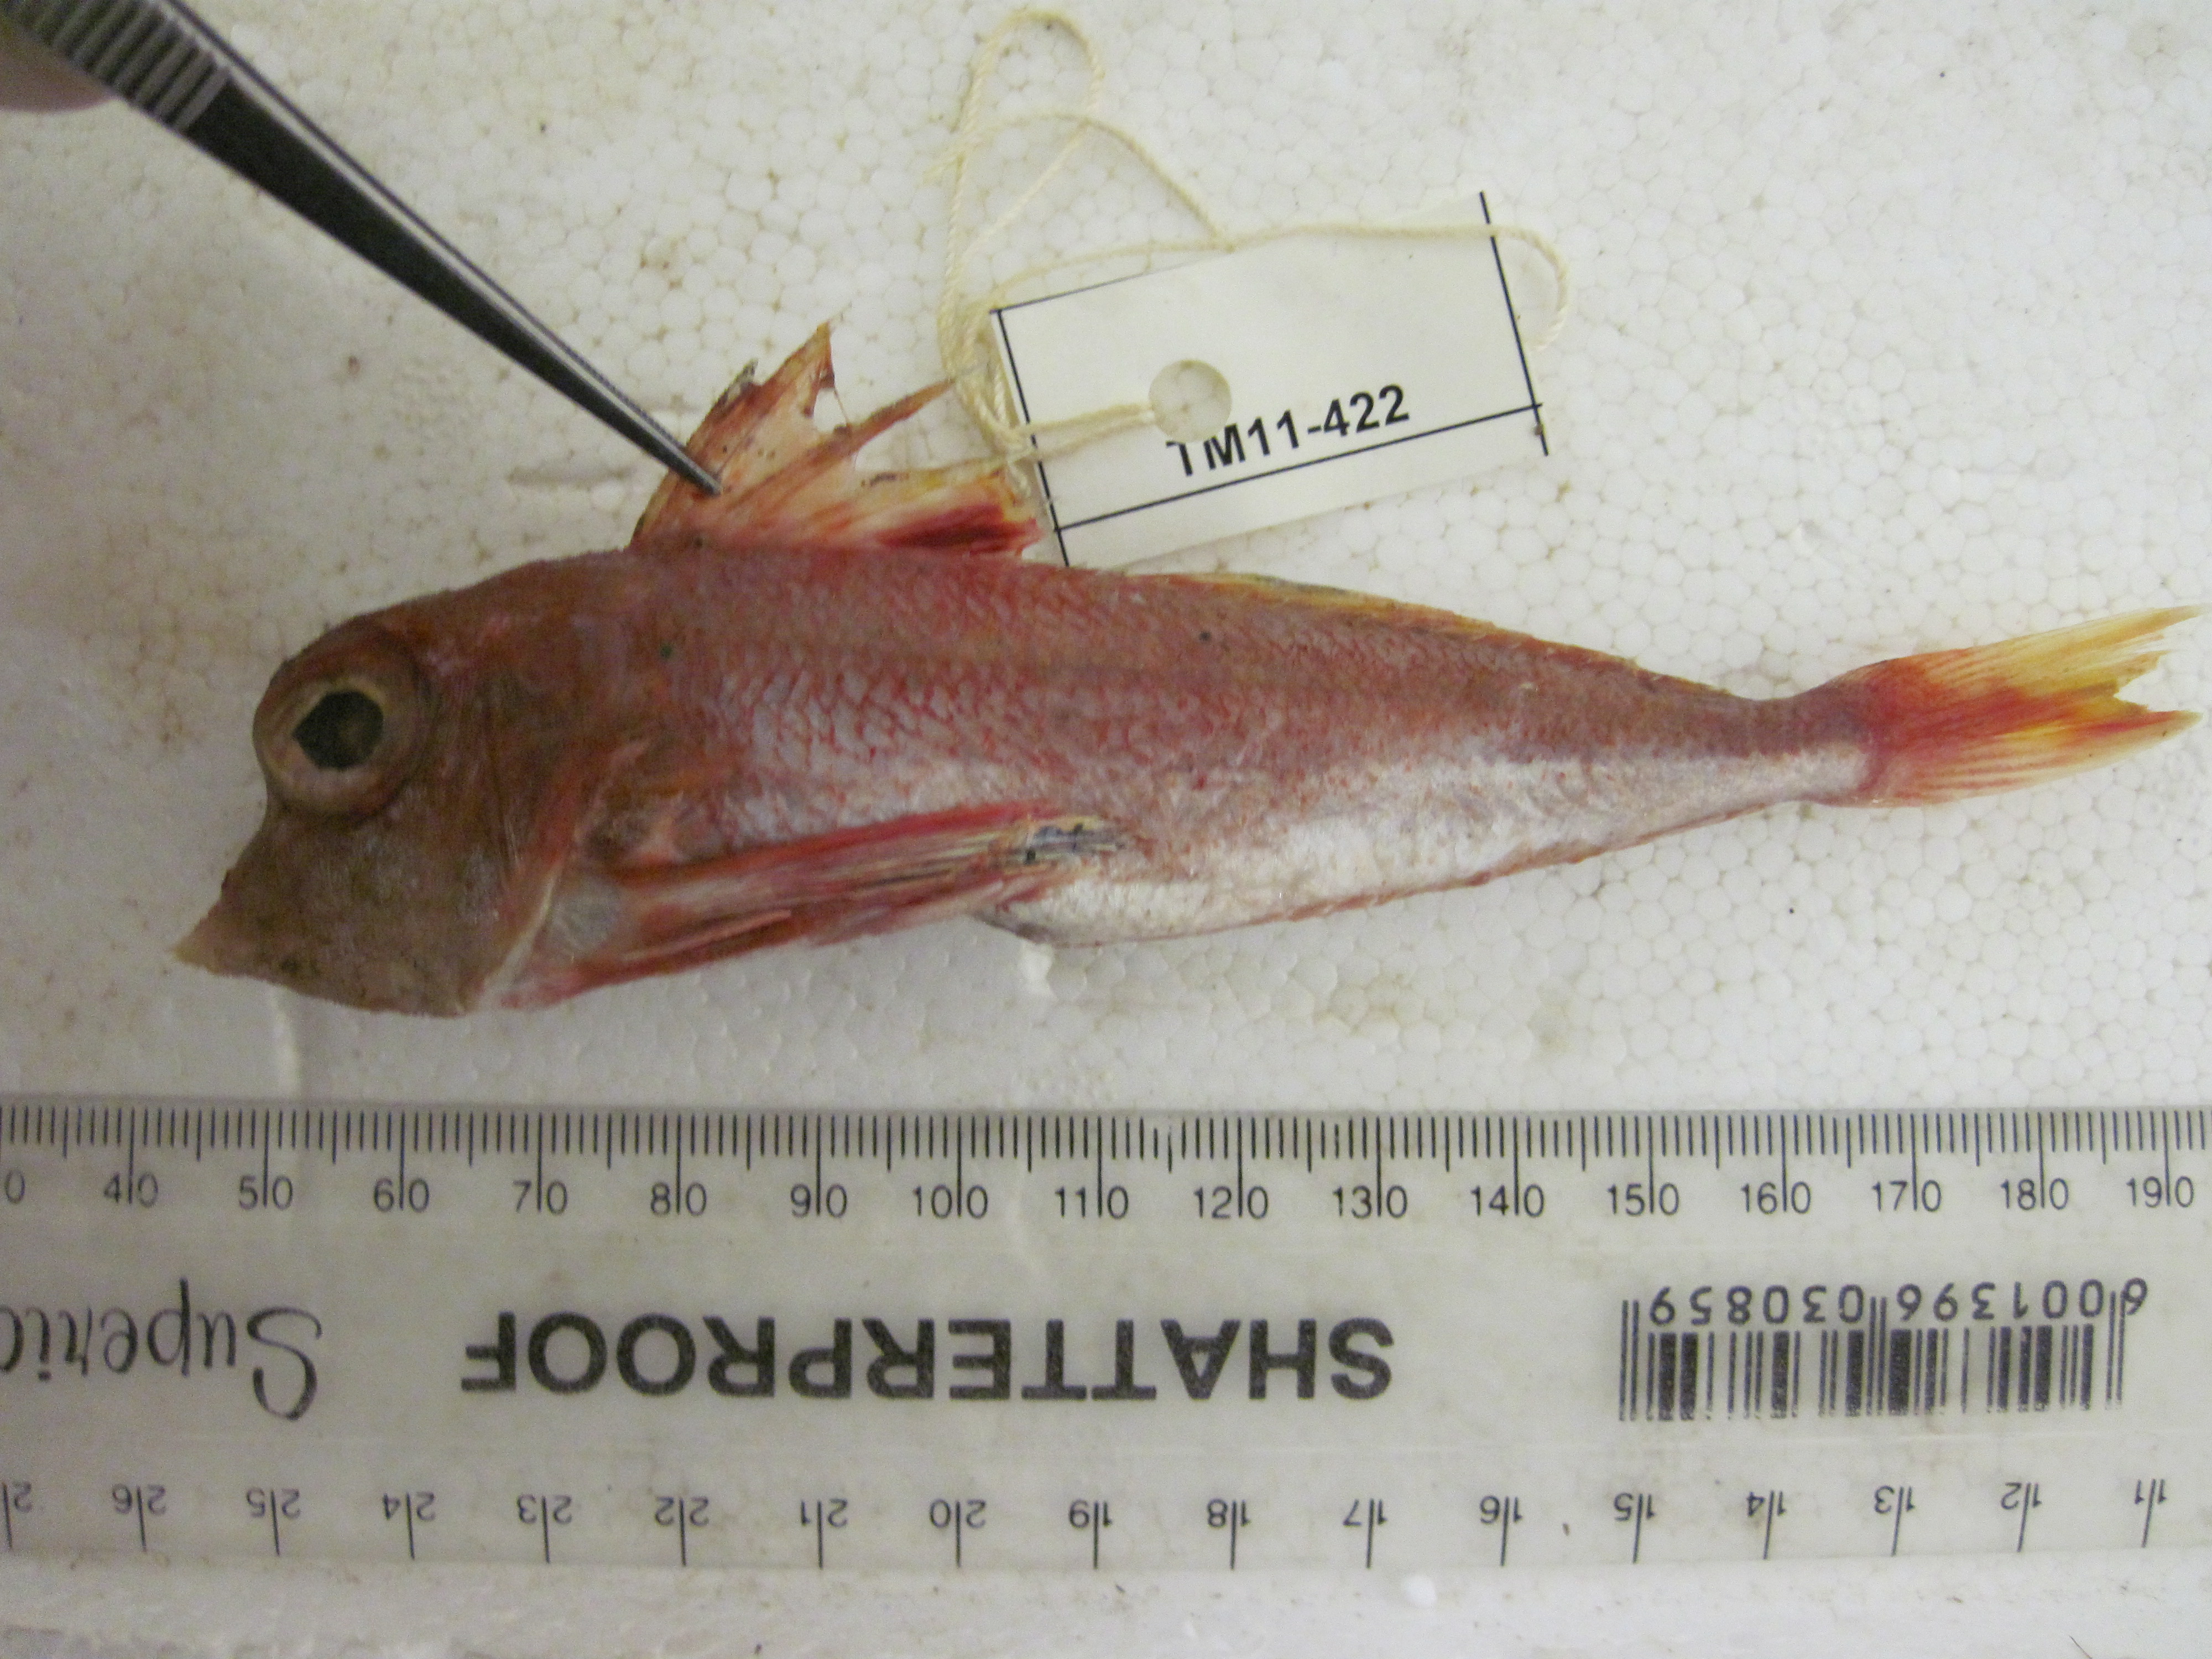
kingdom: Animalia
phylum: Chordata
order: Scorpaeniformes
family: Triglidae
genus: Lepidotrigla
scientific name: Lepidotrigla faurei
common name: Prickly gurnard
